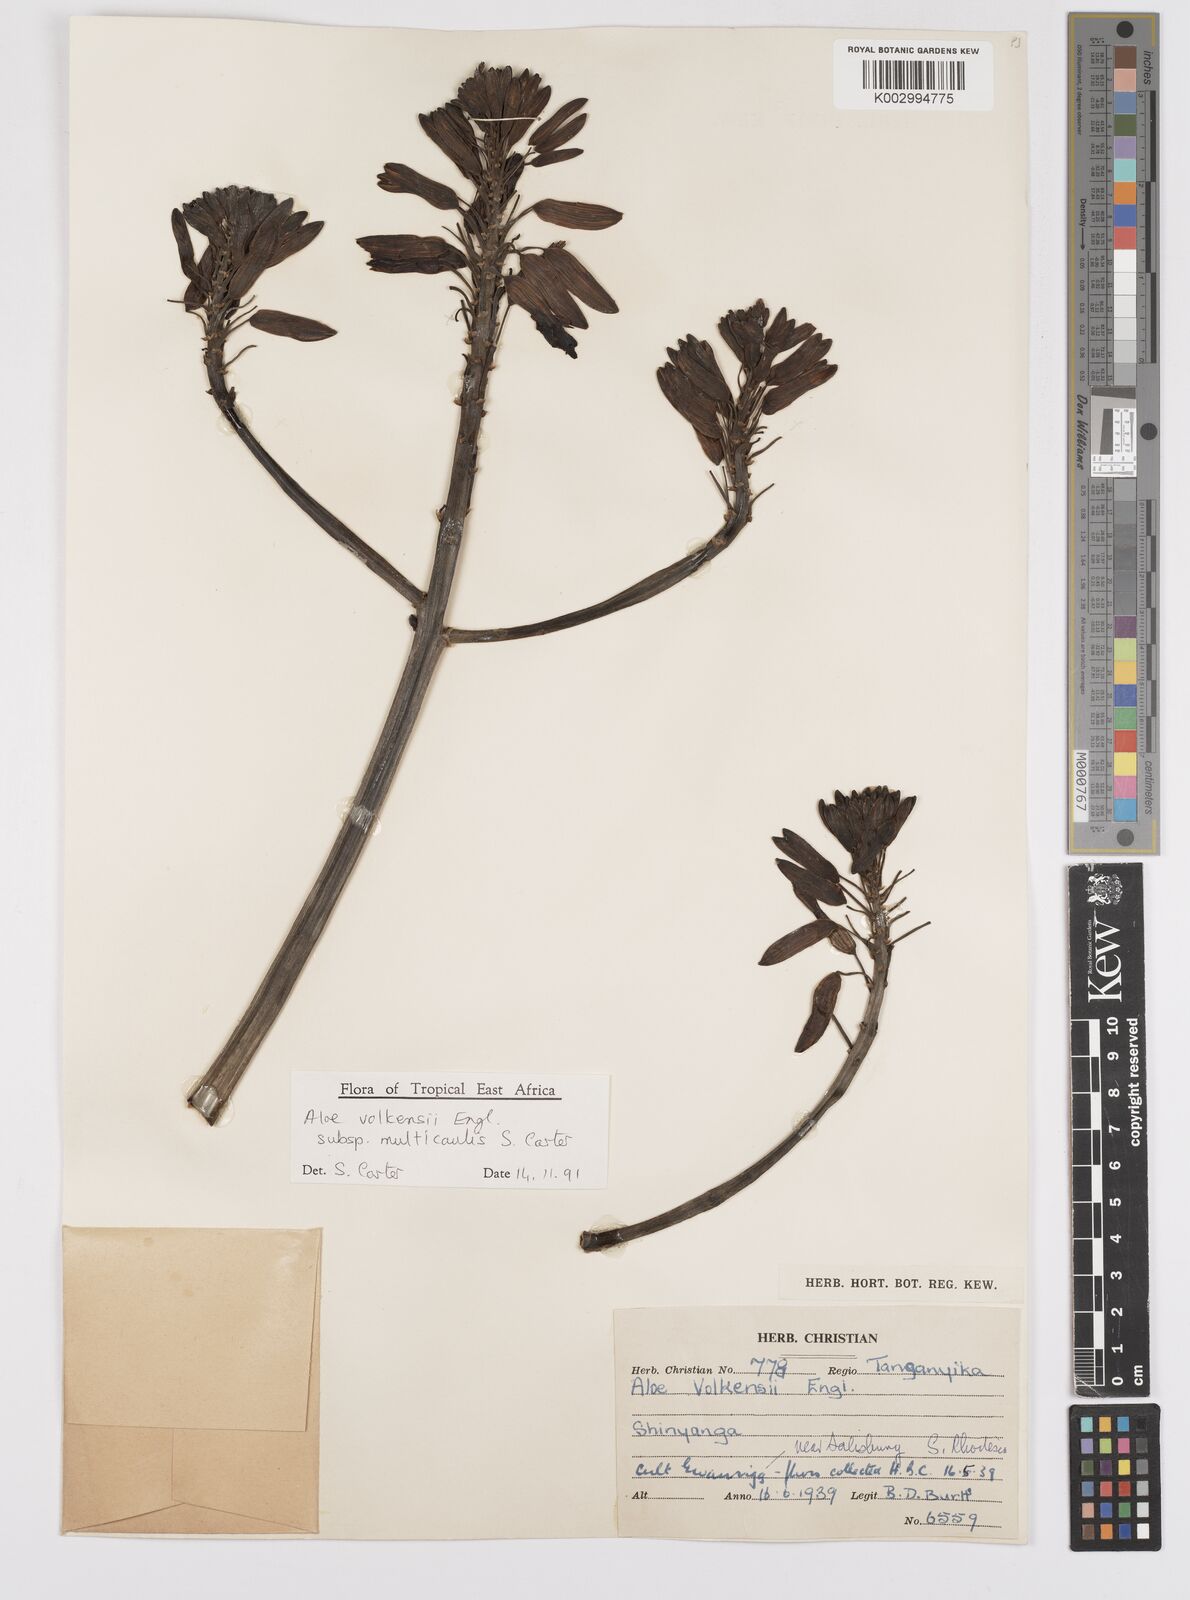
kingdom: Plantae
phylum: Tracheophyta
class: Liliopsida
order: Asparagales
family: Asphodelaceae
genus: Aloe
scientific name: Aloe volkensii
